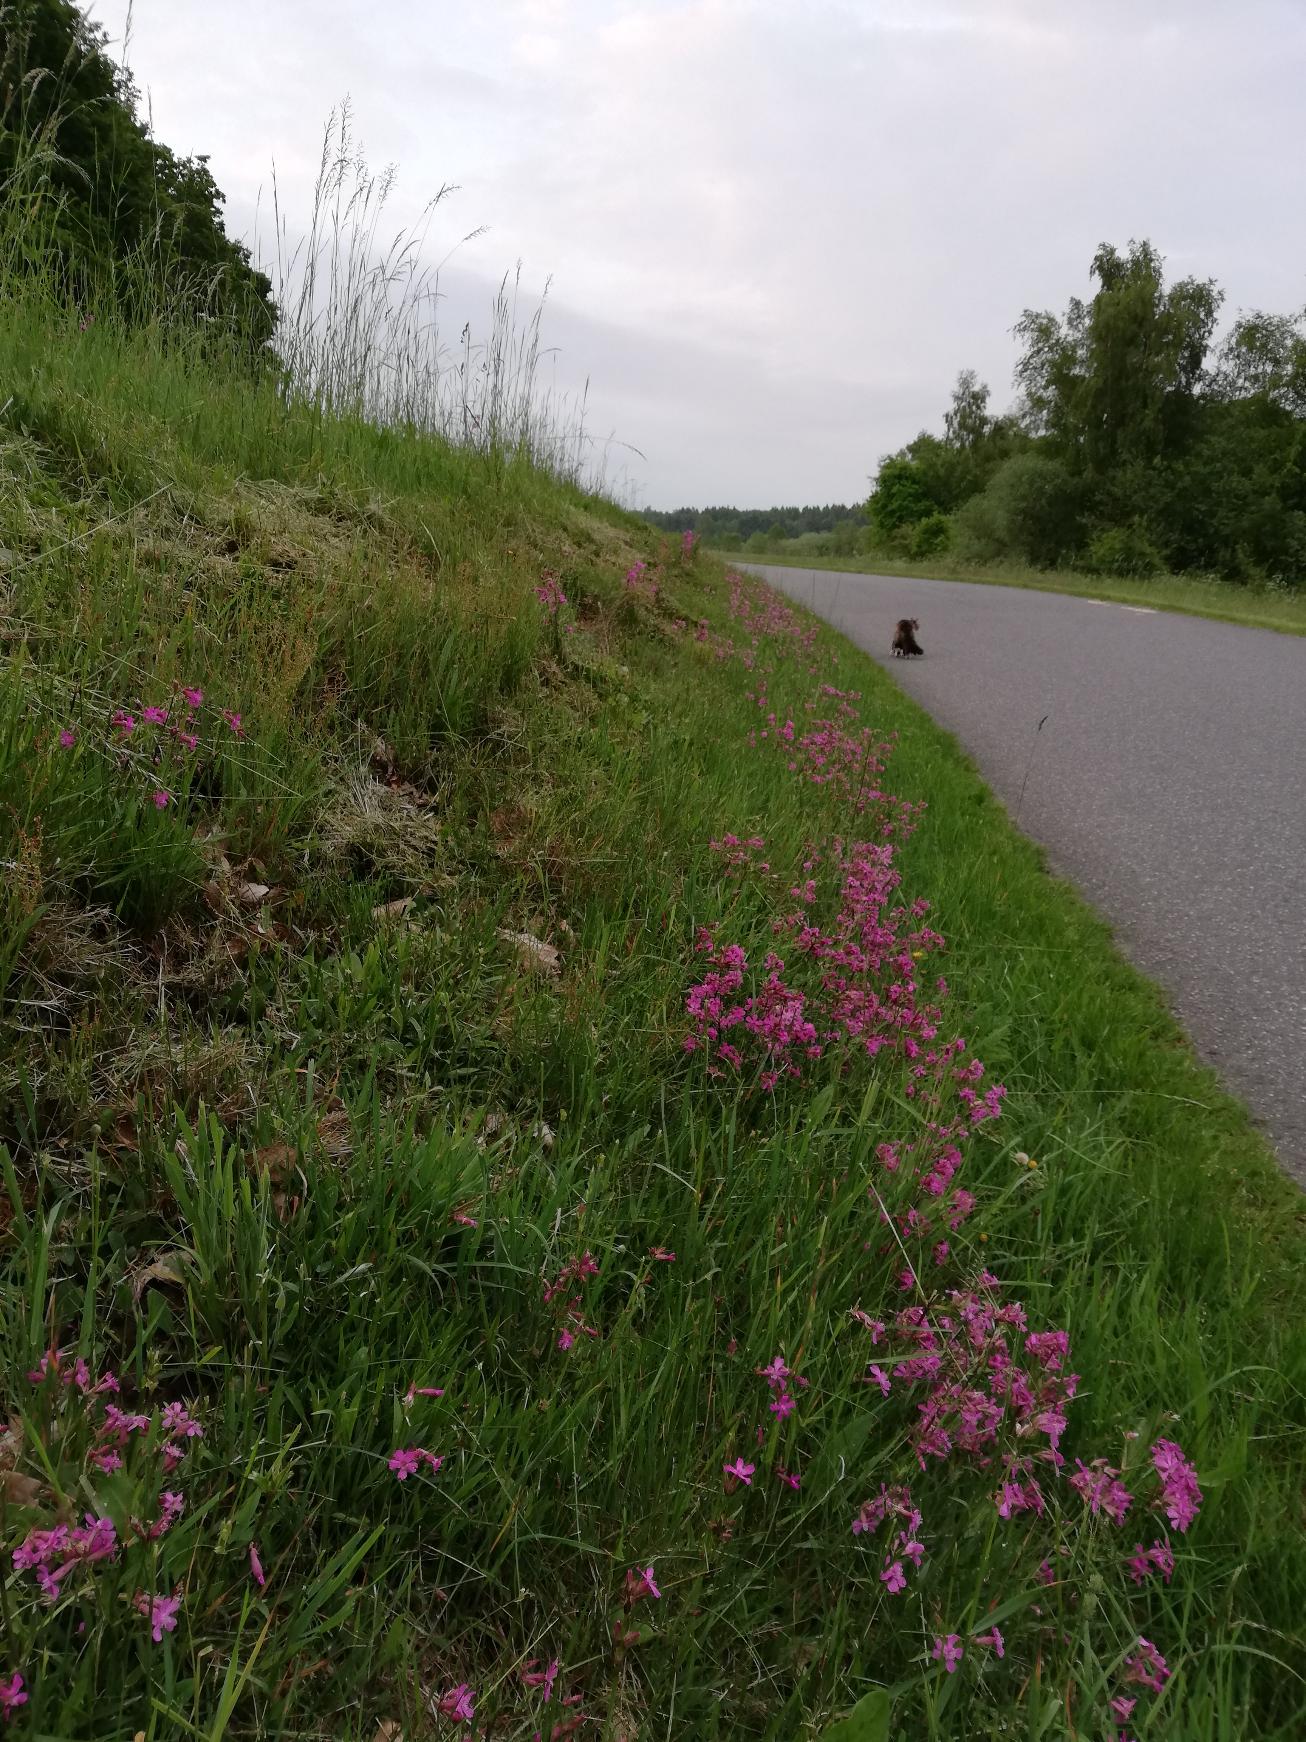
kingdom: Plantae
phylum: Tracheophyta
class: Magnoliopsida
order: Caryophyllales
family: Caryophyllaceae
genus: Viscaria
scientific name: Viscaria vulgaris
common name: Tjærenellike
